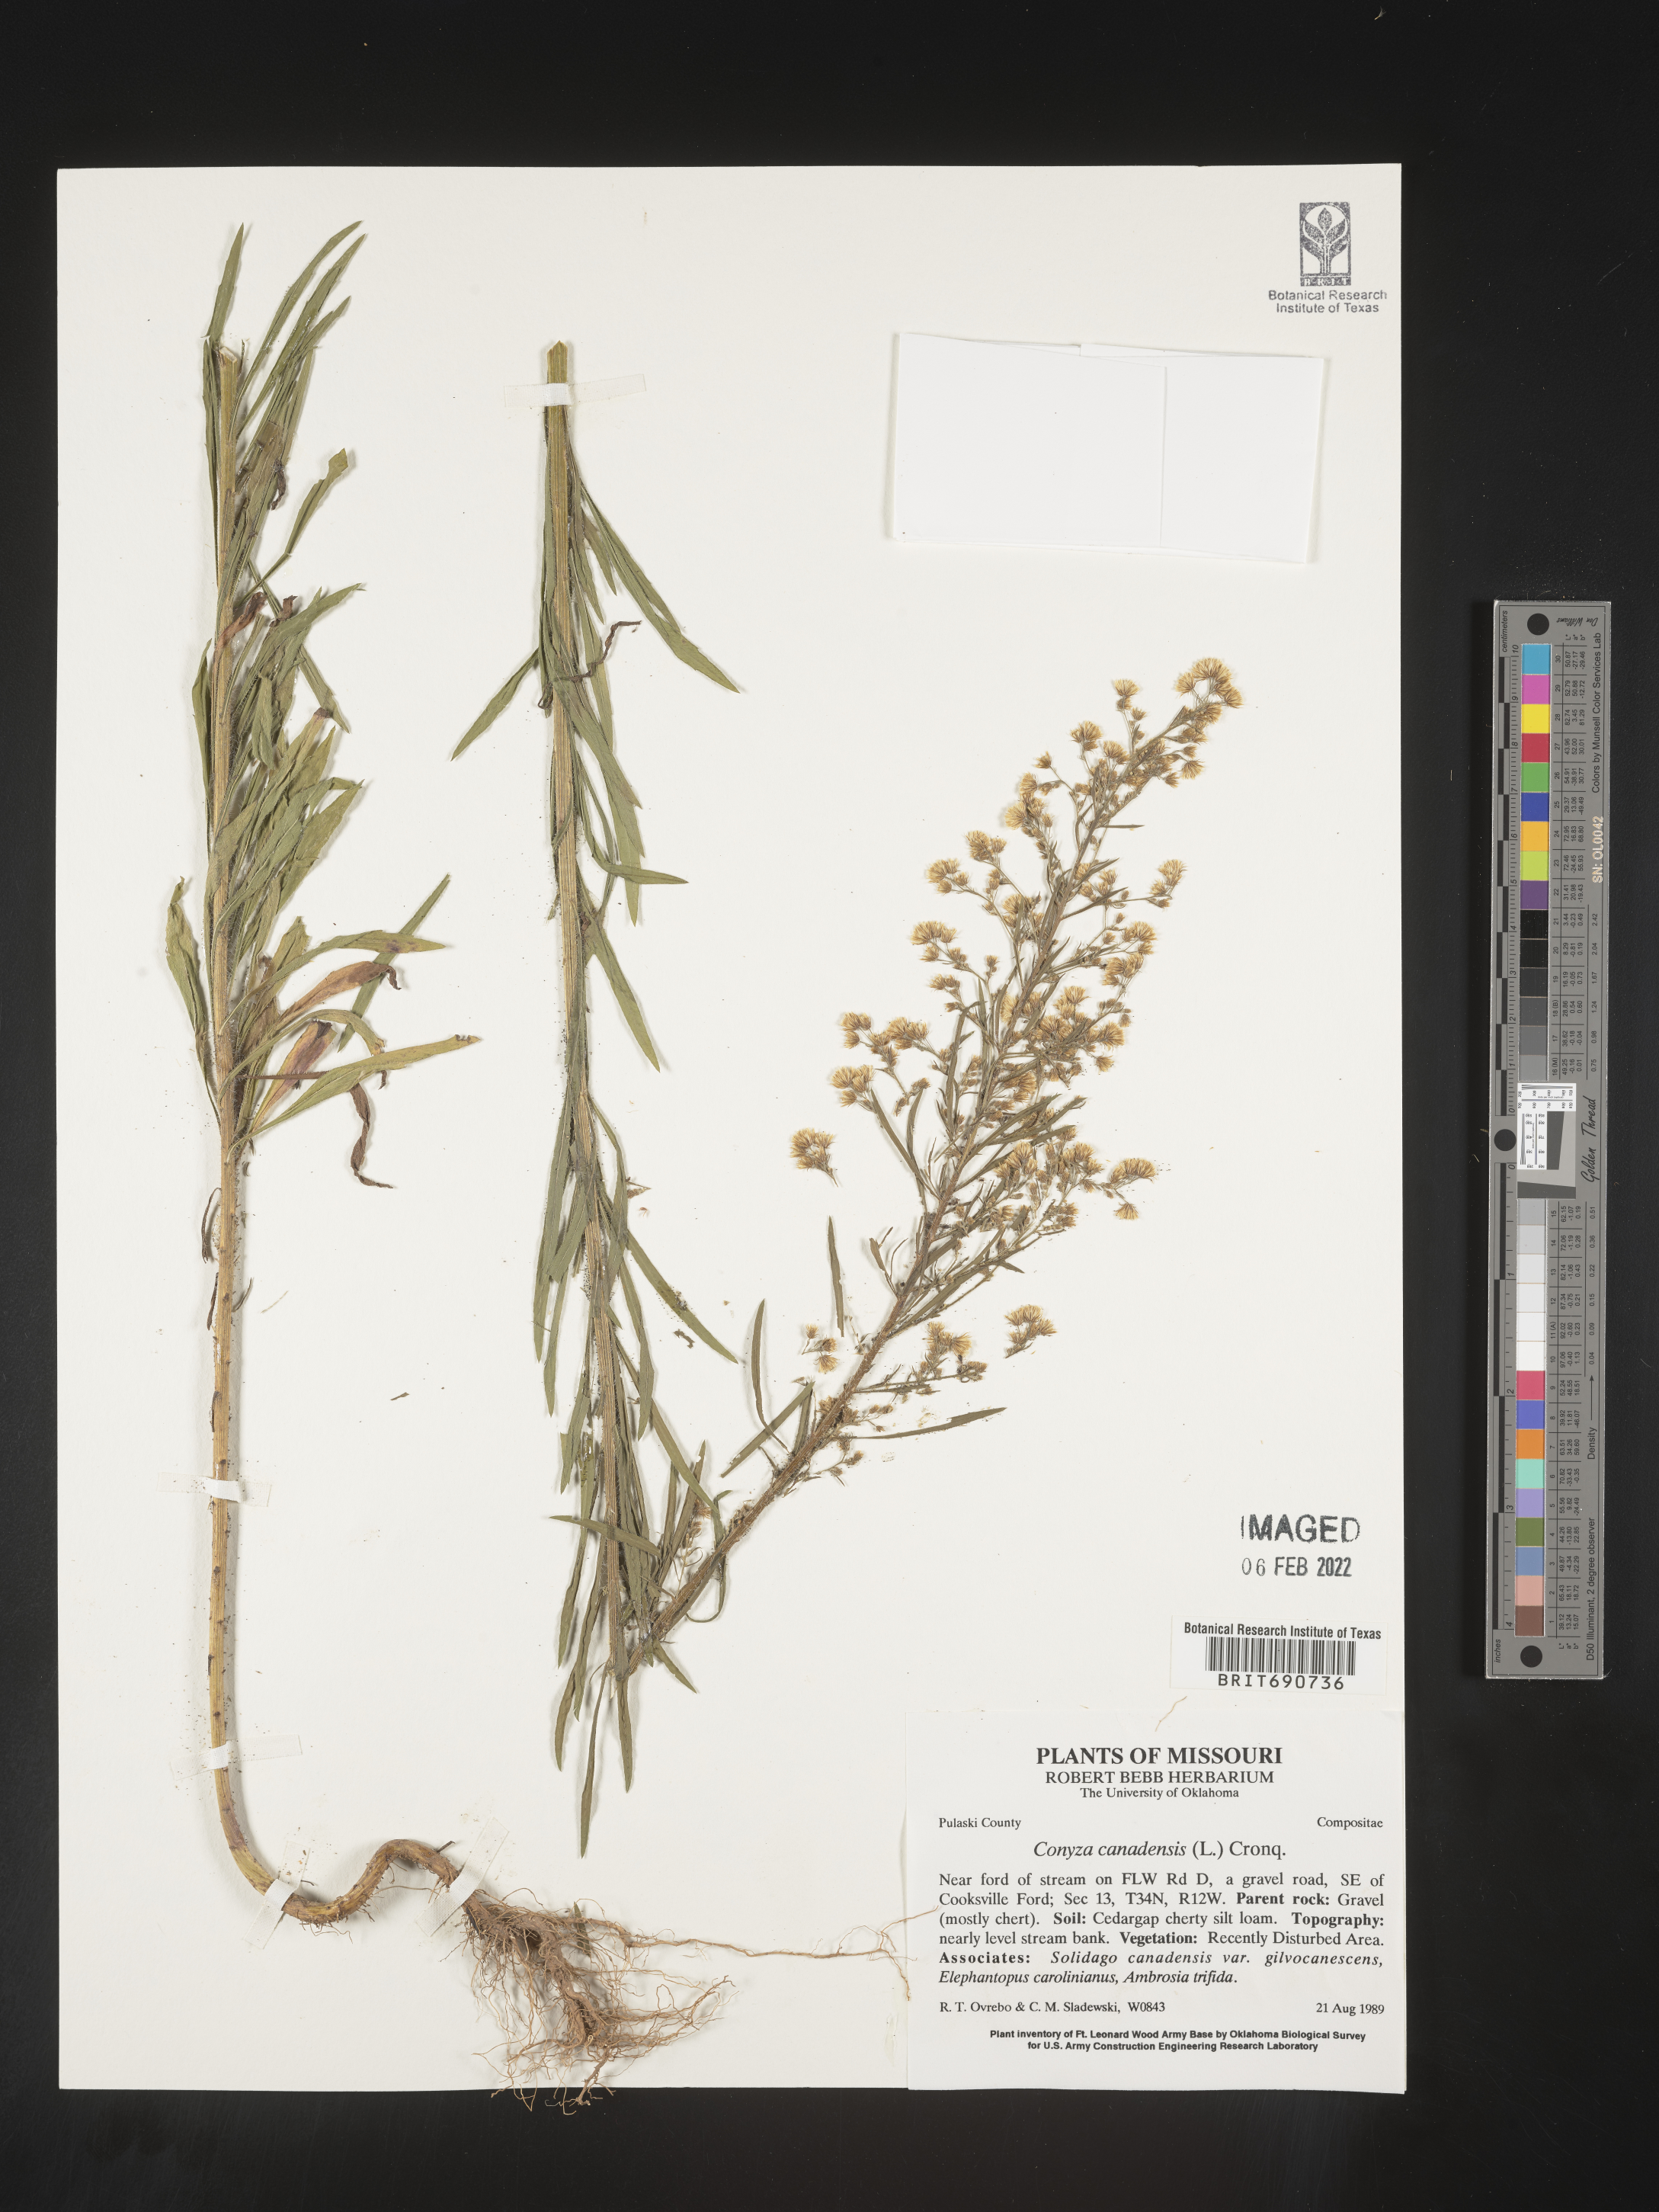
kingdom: Plantae
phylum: Tracheophyta
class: Magnoliopsida
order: Asterales
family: Asteraceae
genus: Erigeron
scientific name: Erigeron canadensis
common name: Canadian fleabane
